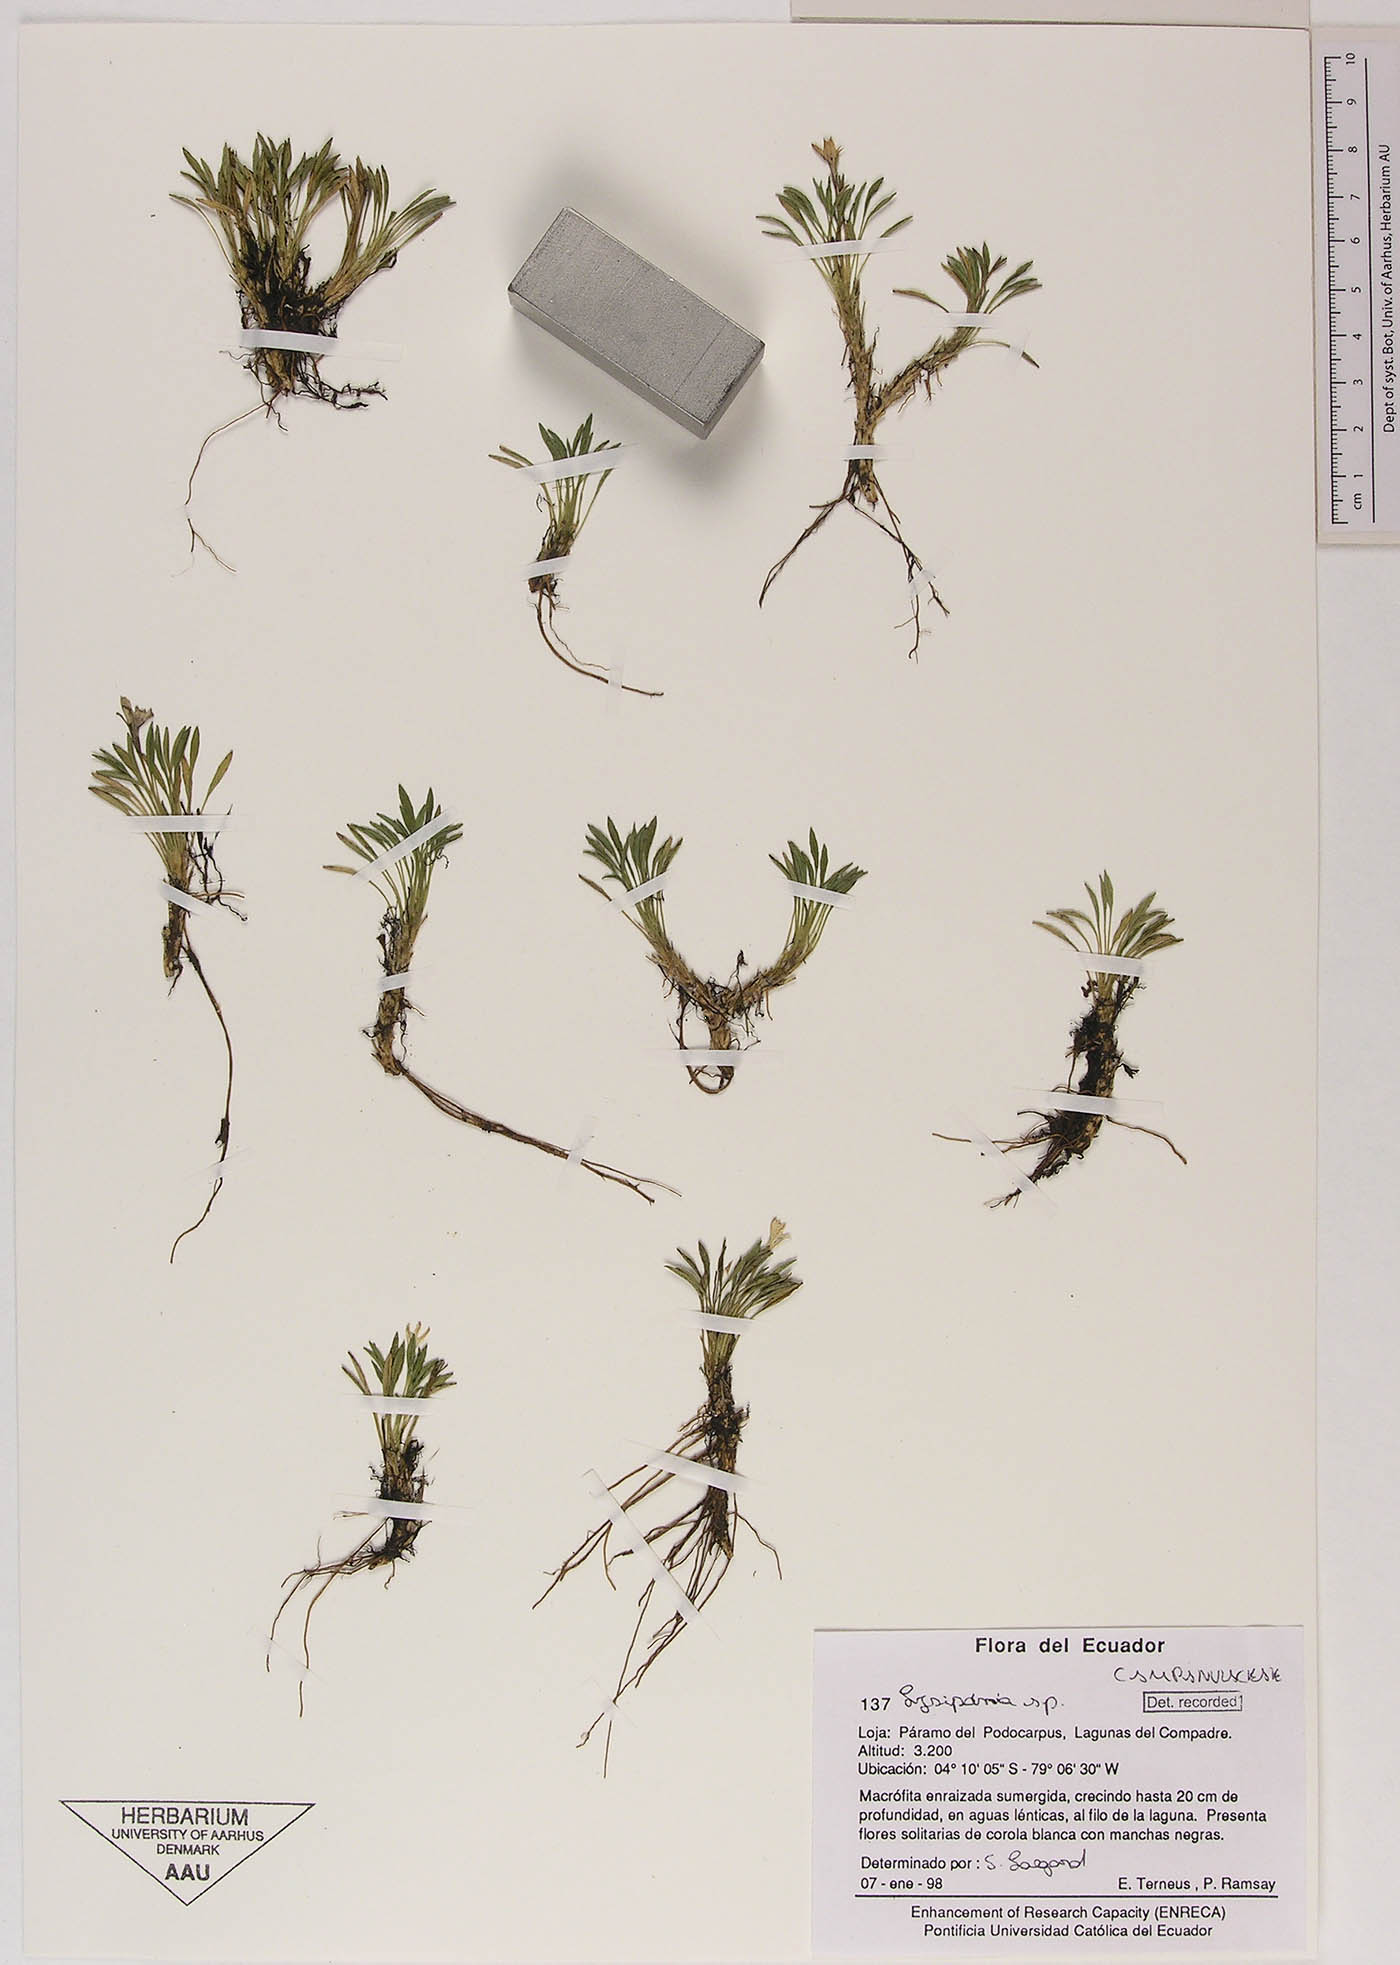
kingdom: Plantae
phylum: Tracheophyta
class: Magnoliopsida
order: Asterales
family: Campanulaceae
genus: Lysipomia
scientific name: Lysipomia
